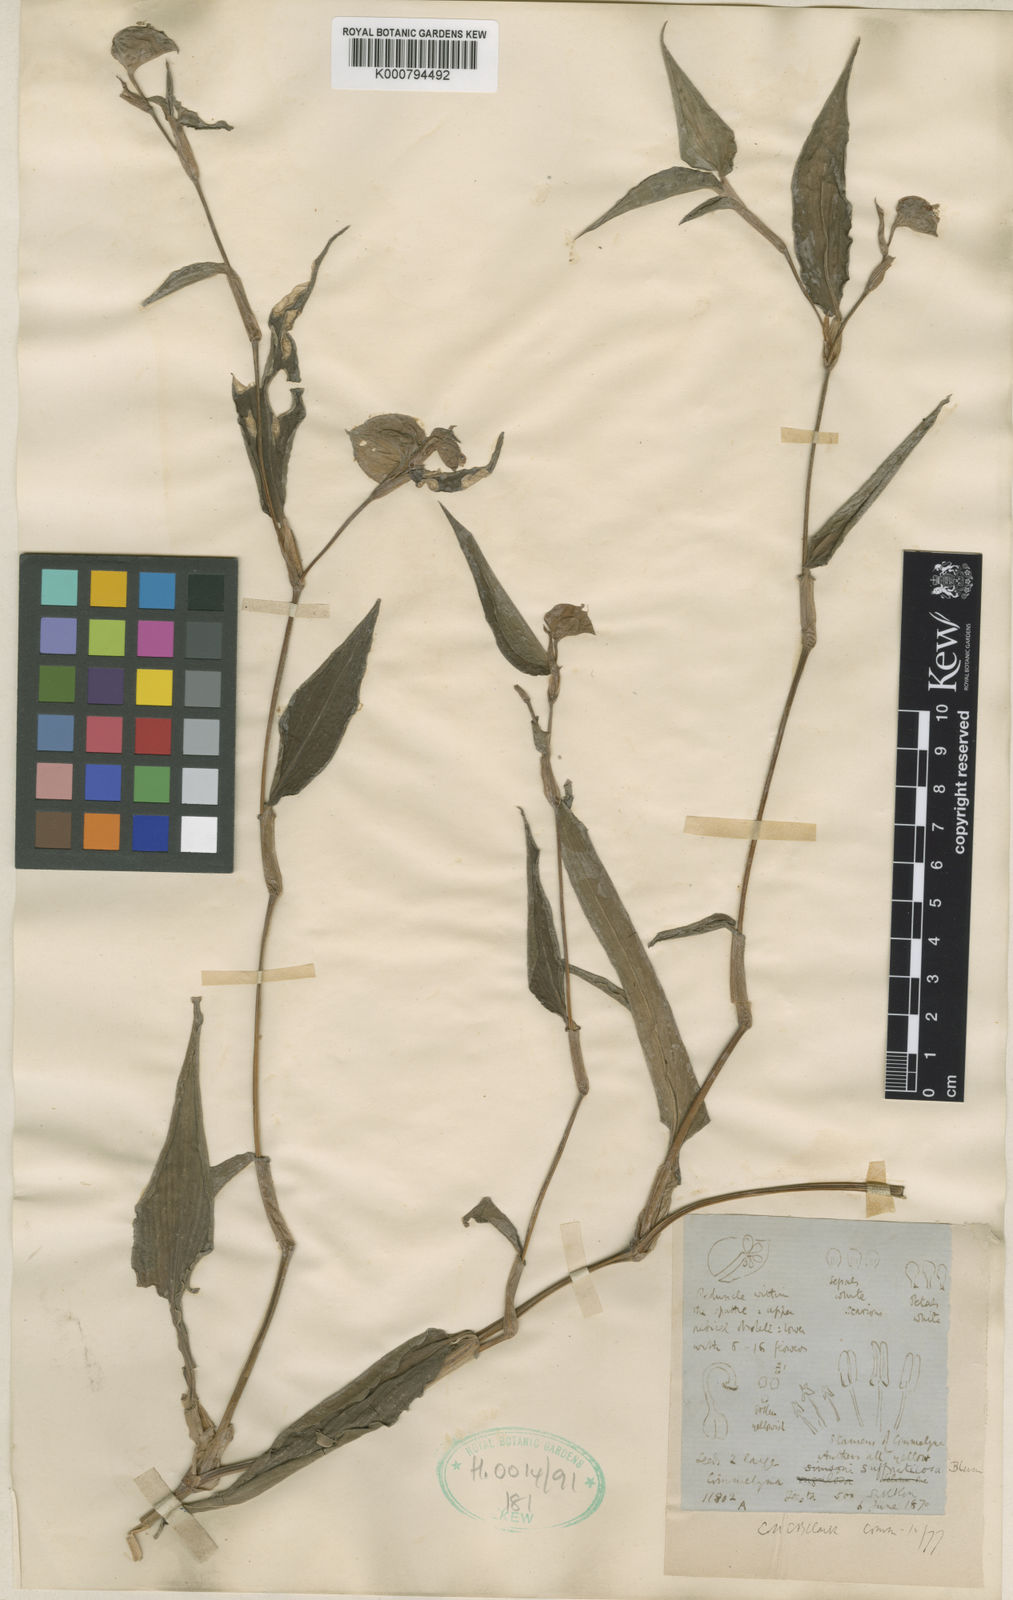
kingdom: Plantae
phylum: Tracheophyta
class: Liliopsida
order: Commelinales
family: Commelinaceae
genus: Commelina
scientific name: Commelina suffruticosa
